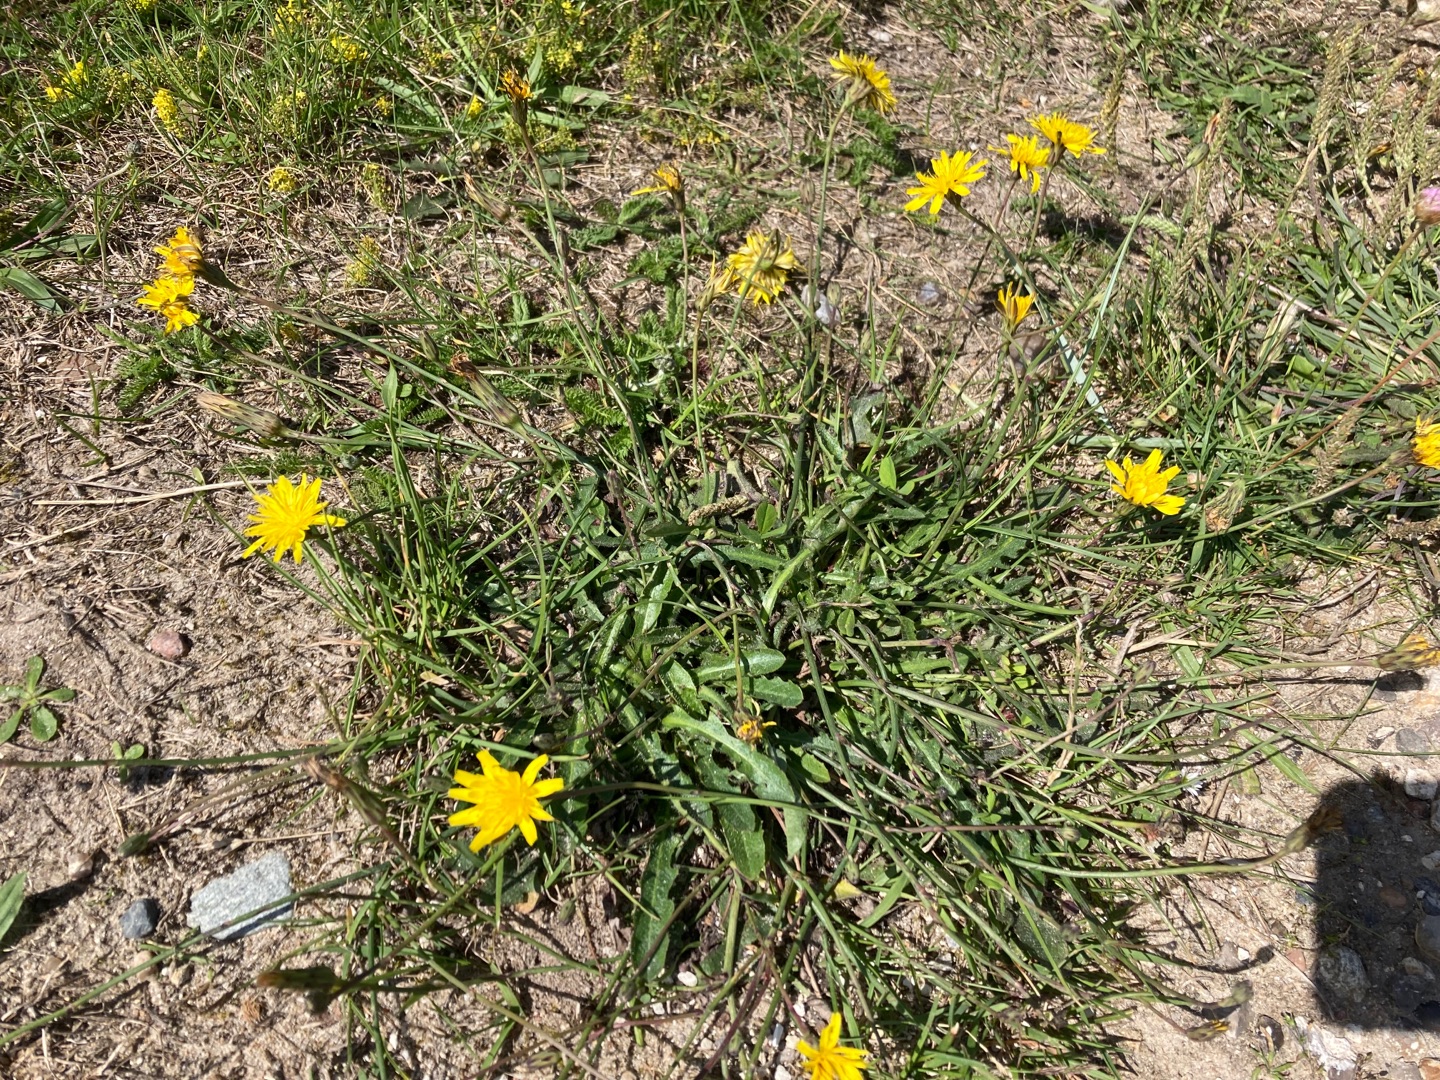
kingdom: Plantae
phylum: Tracheophyta
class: Magnoliopsida
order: Asterales
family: Asteraceae
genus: Hypochaeris
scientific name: Hypochaeris radicata
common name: Almindelig kongepen
